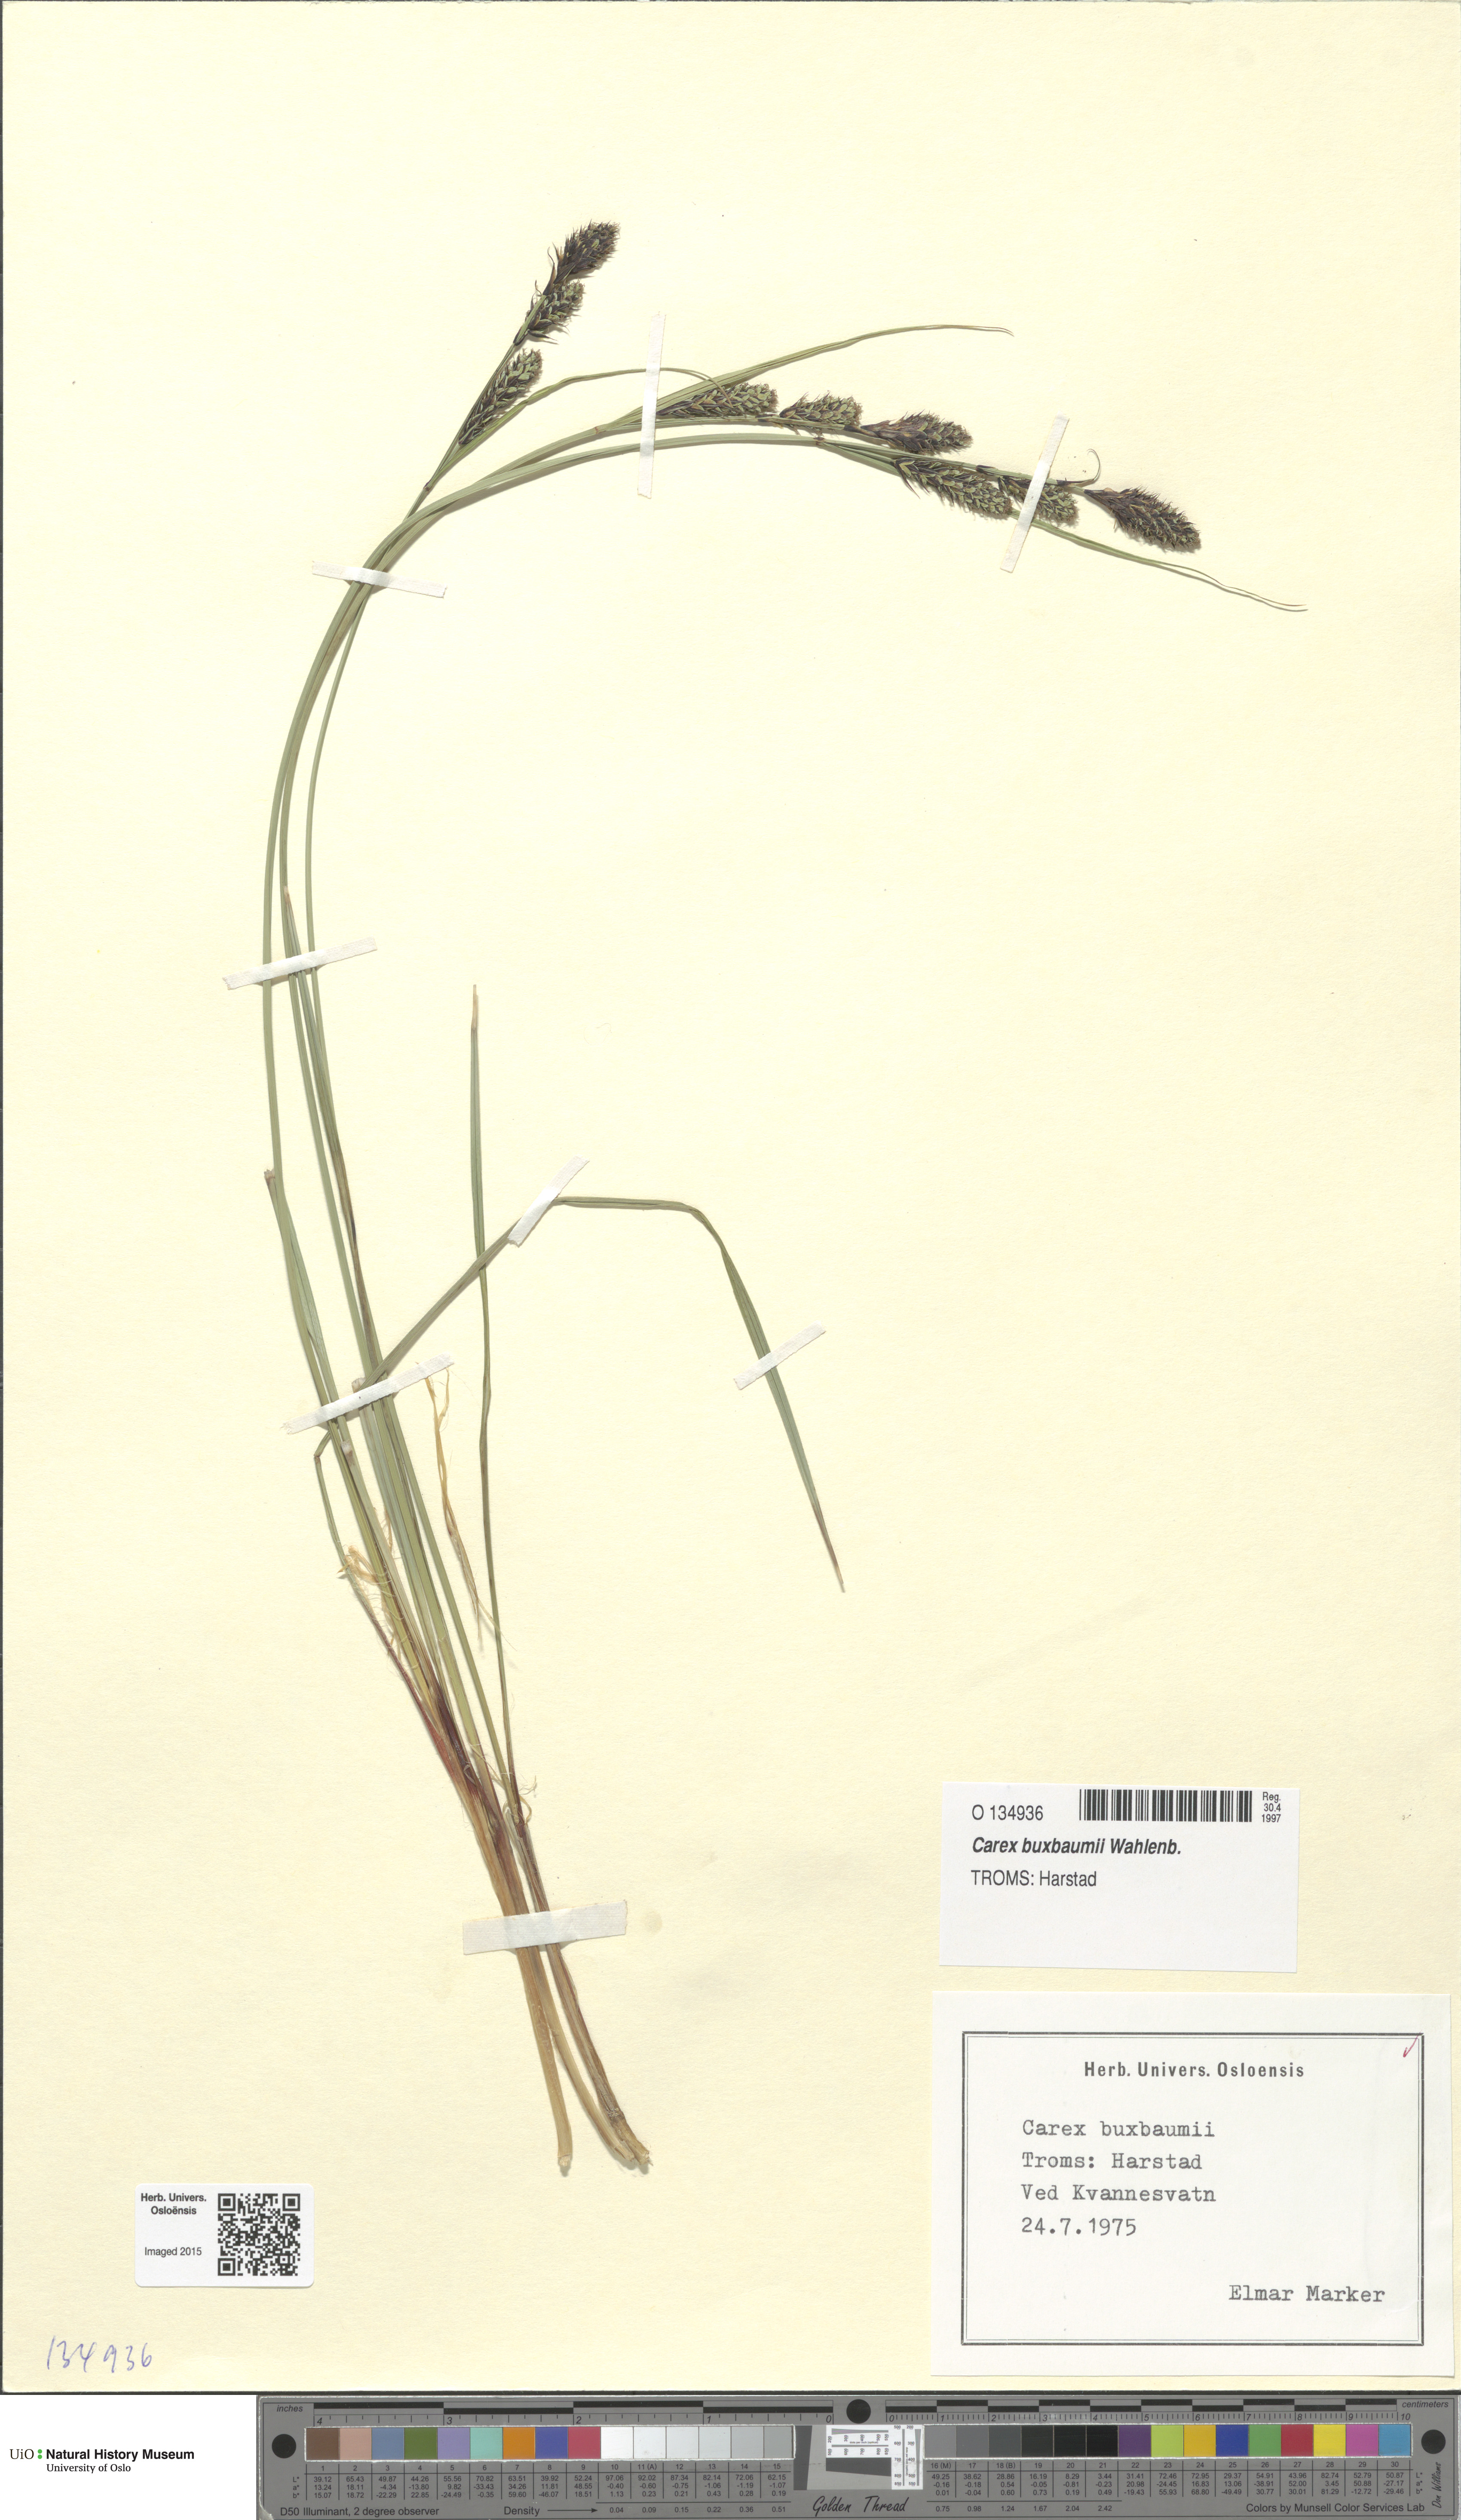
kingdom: Plantae
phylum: Tracheophyta
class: Liliopsida
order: Poales
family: Cyperaceae
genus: Carex
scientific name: Carex buxbaumii
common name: Club sedge
